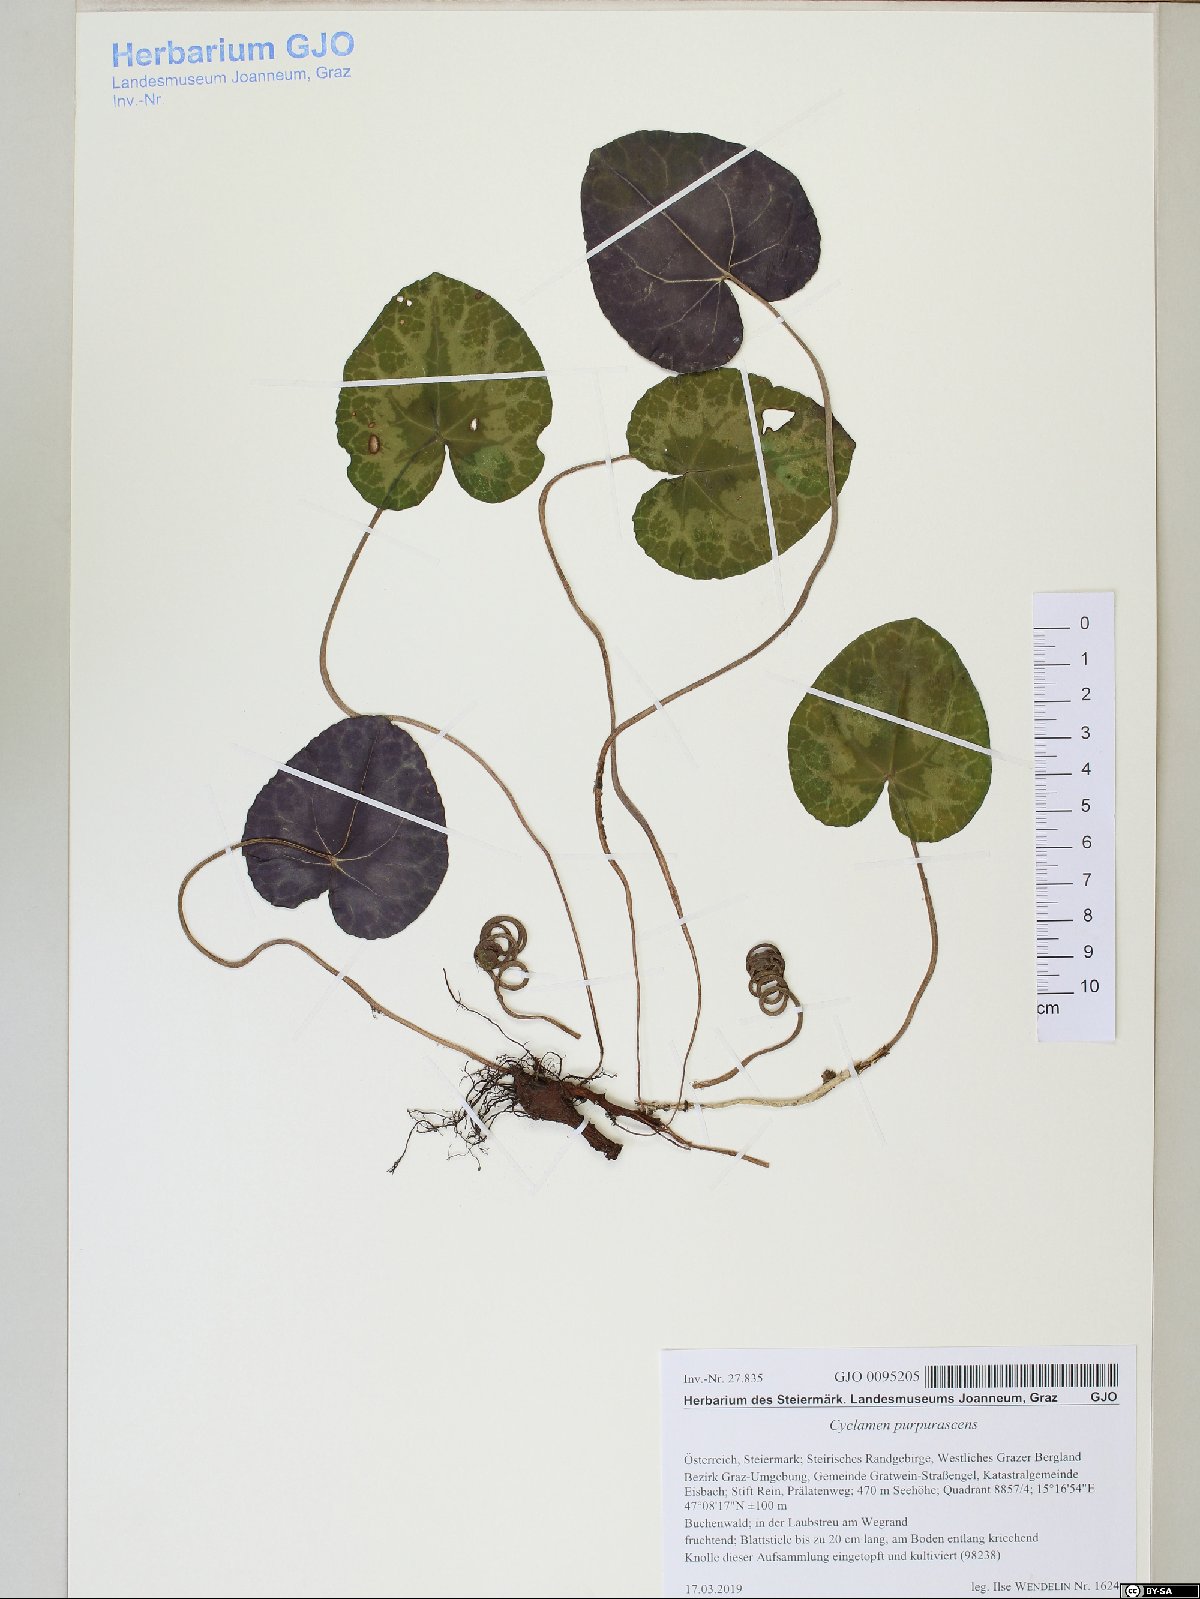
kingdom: Plantae
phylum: Tracheophyta
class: Magnoliopsida
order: Ericales
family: Primulaceae
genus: Cyclamen
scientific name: Cyclamen purpurascens
